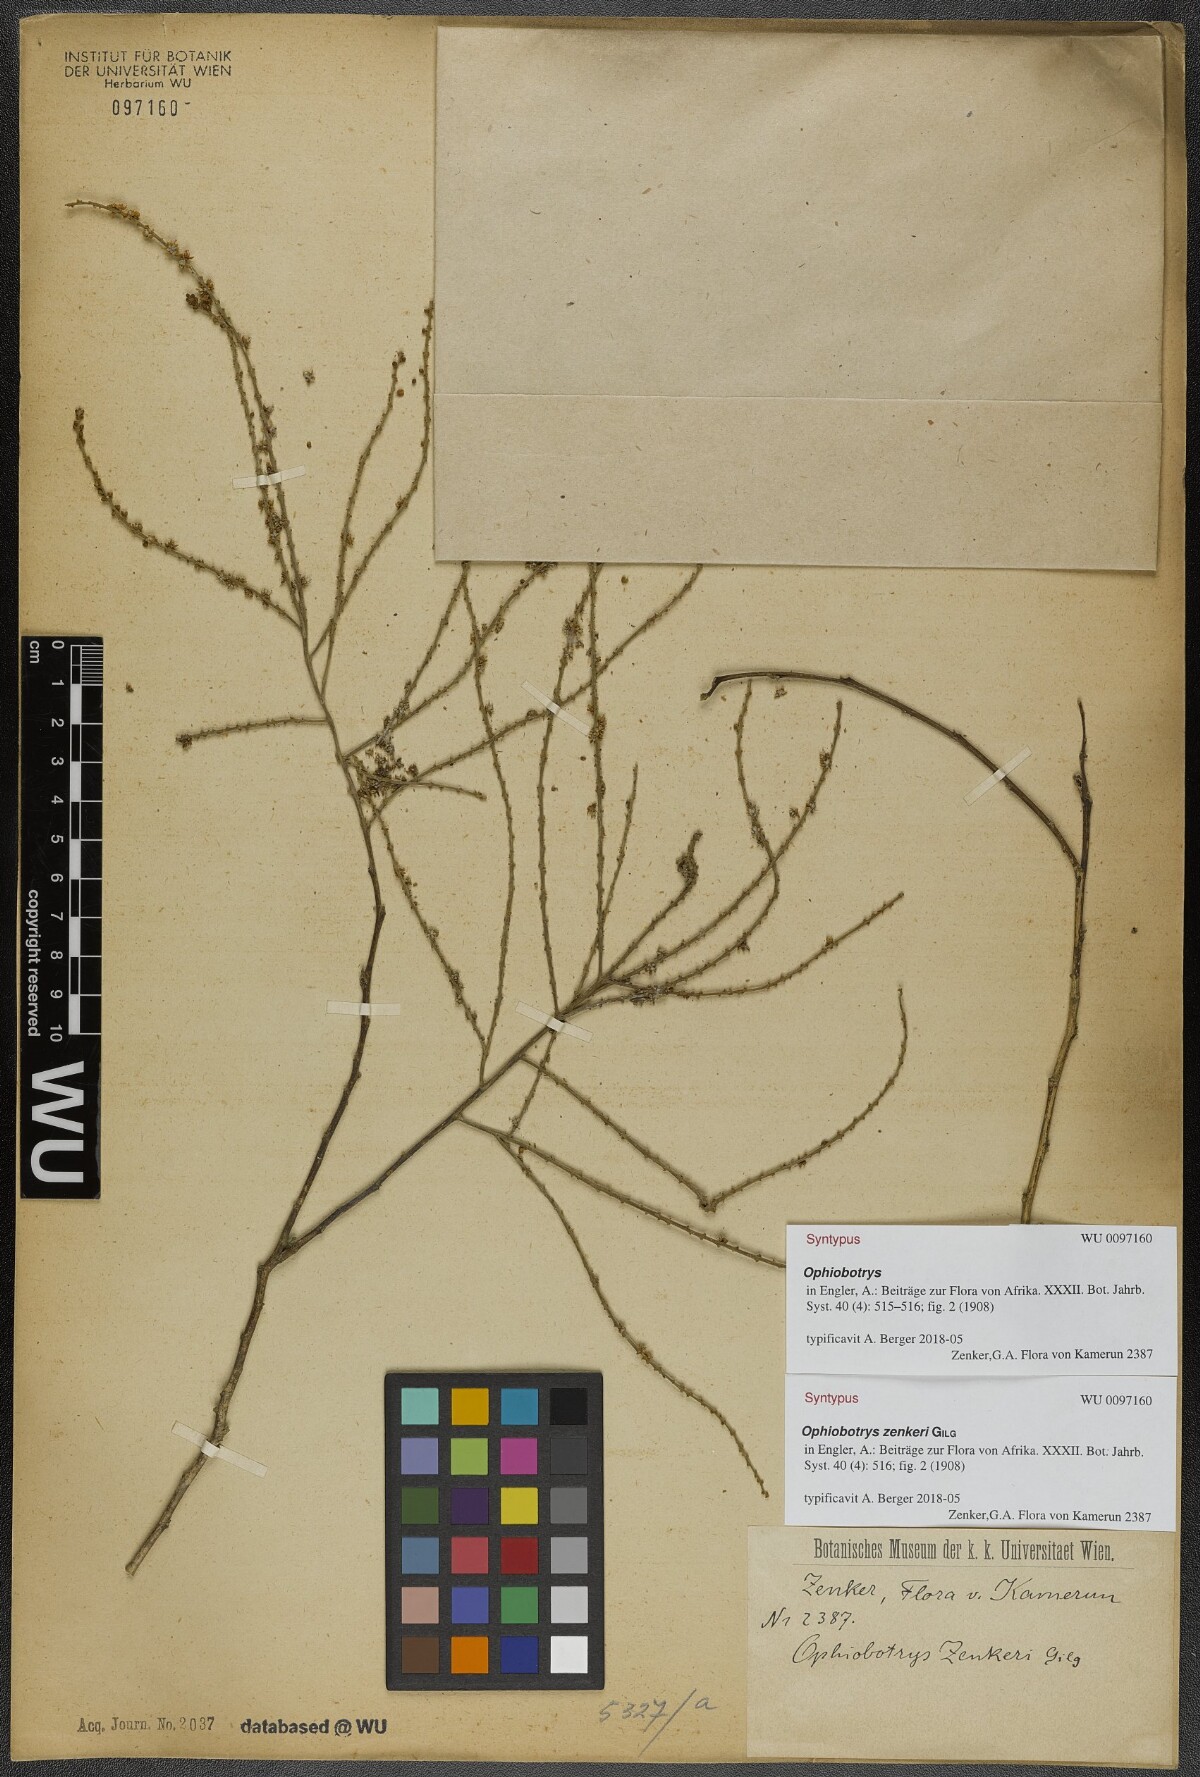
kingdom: Plantae
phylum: Tracheophyta
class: Magnoliopsida
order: Malpighiales
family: Salicaceae
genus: Ophiobotrys
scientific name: Ophiobotrys zenkeri
